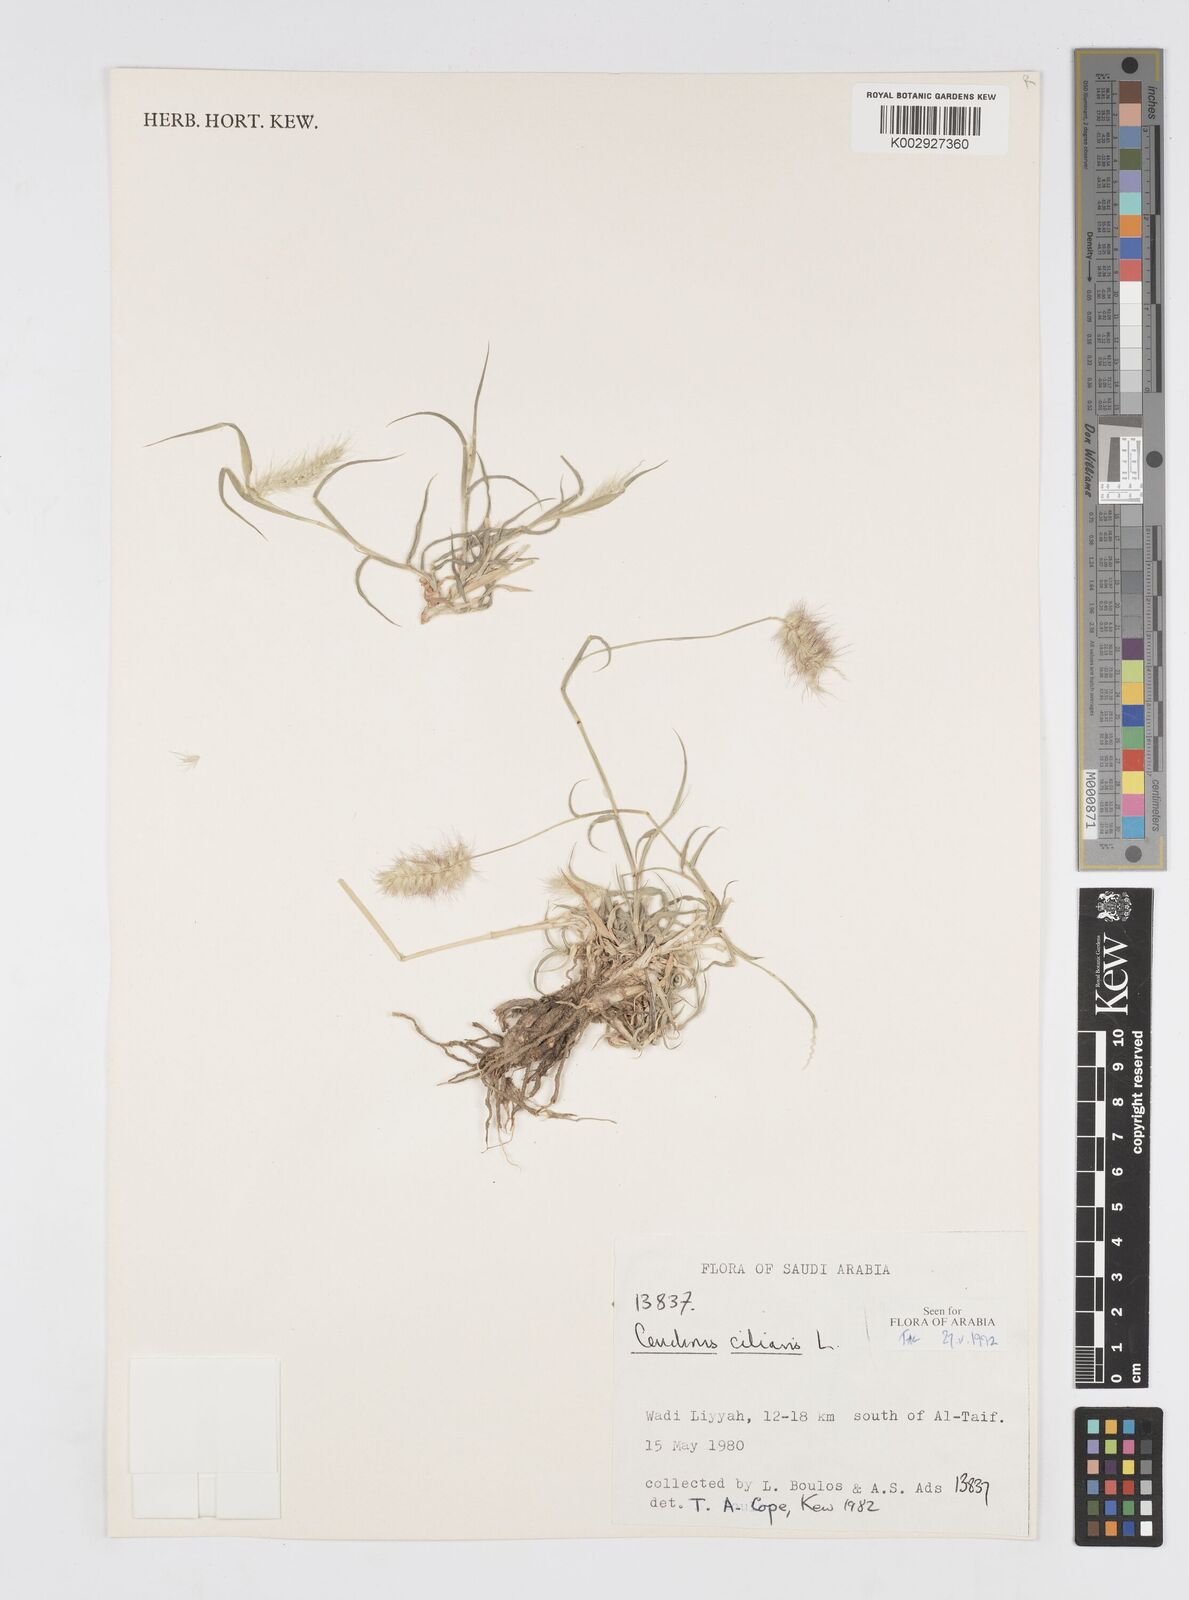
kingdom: Plantae
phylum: Tracheophyta
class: Liliopsida
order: Poales
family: Poaceae
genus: Cenchrus
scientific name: Cenchrus ciliaris
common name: Buffelgrass
